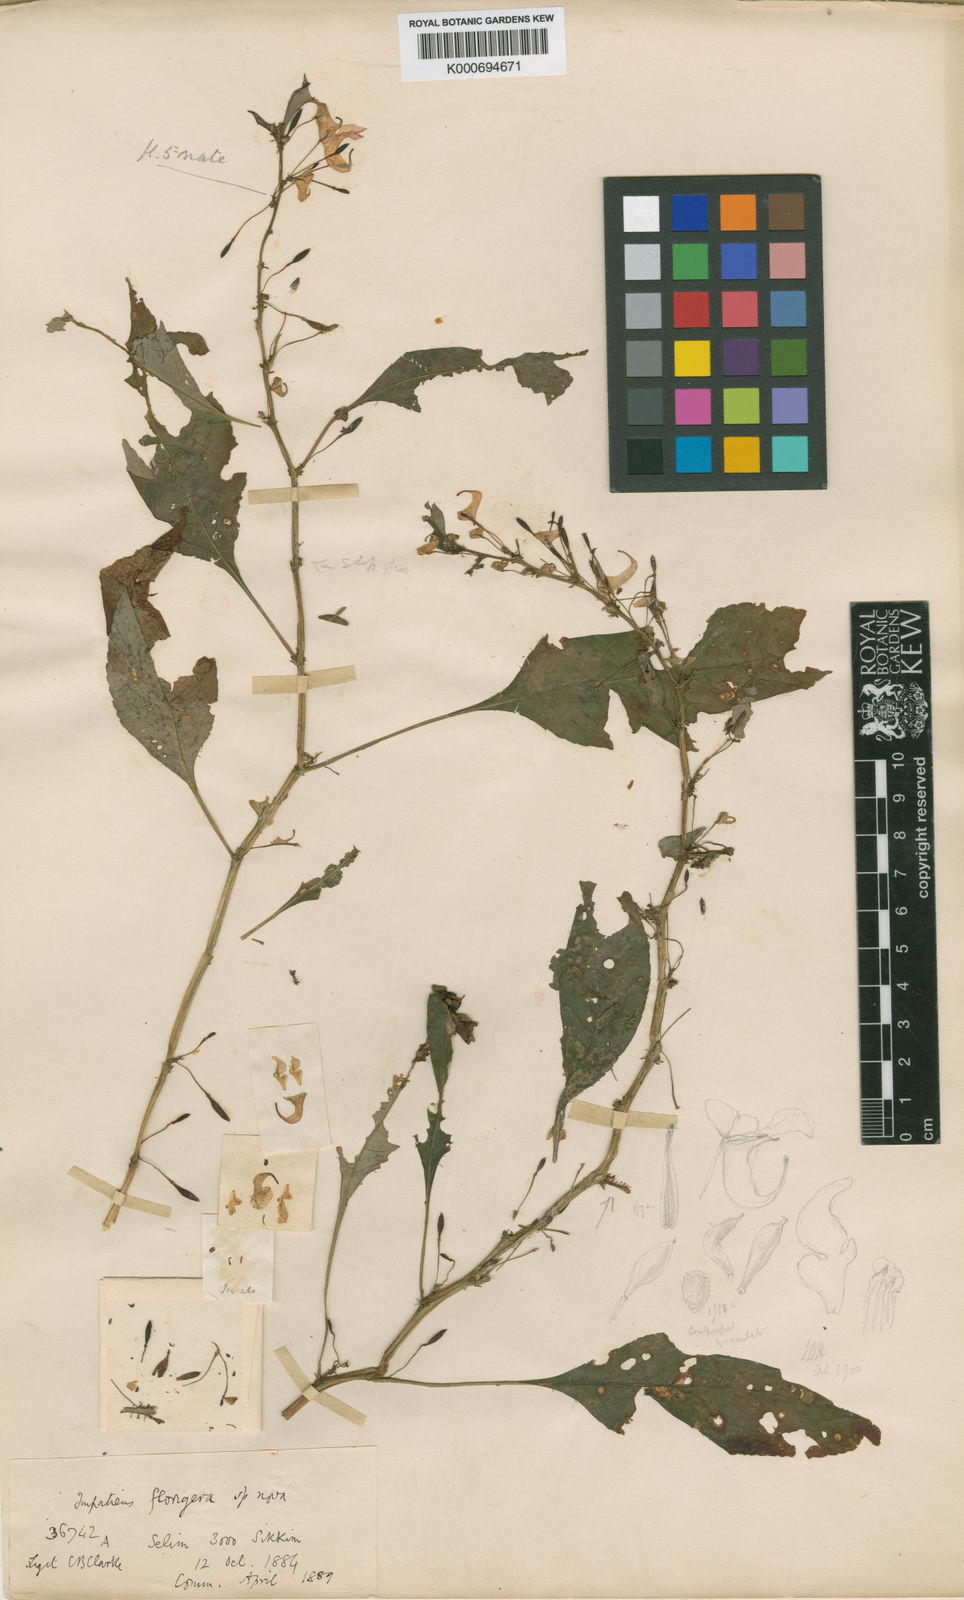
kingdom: Plantae
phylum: Tracheophyta
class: Magnoliopsida
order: Ericales
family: Balsaminaceae
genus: Impatiens
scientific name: Impatiens florigera
